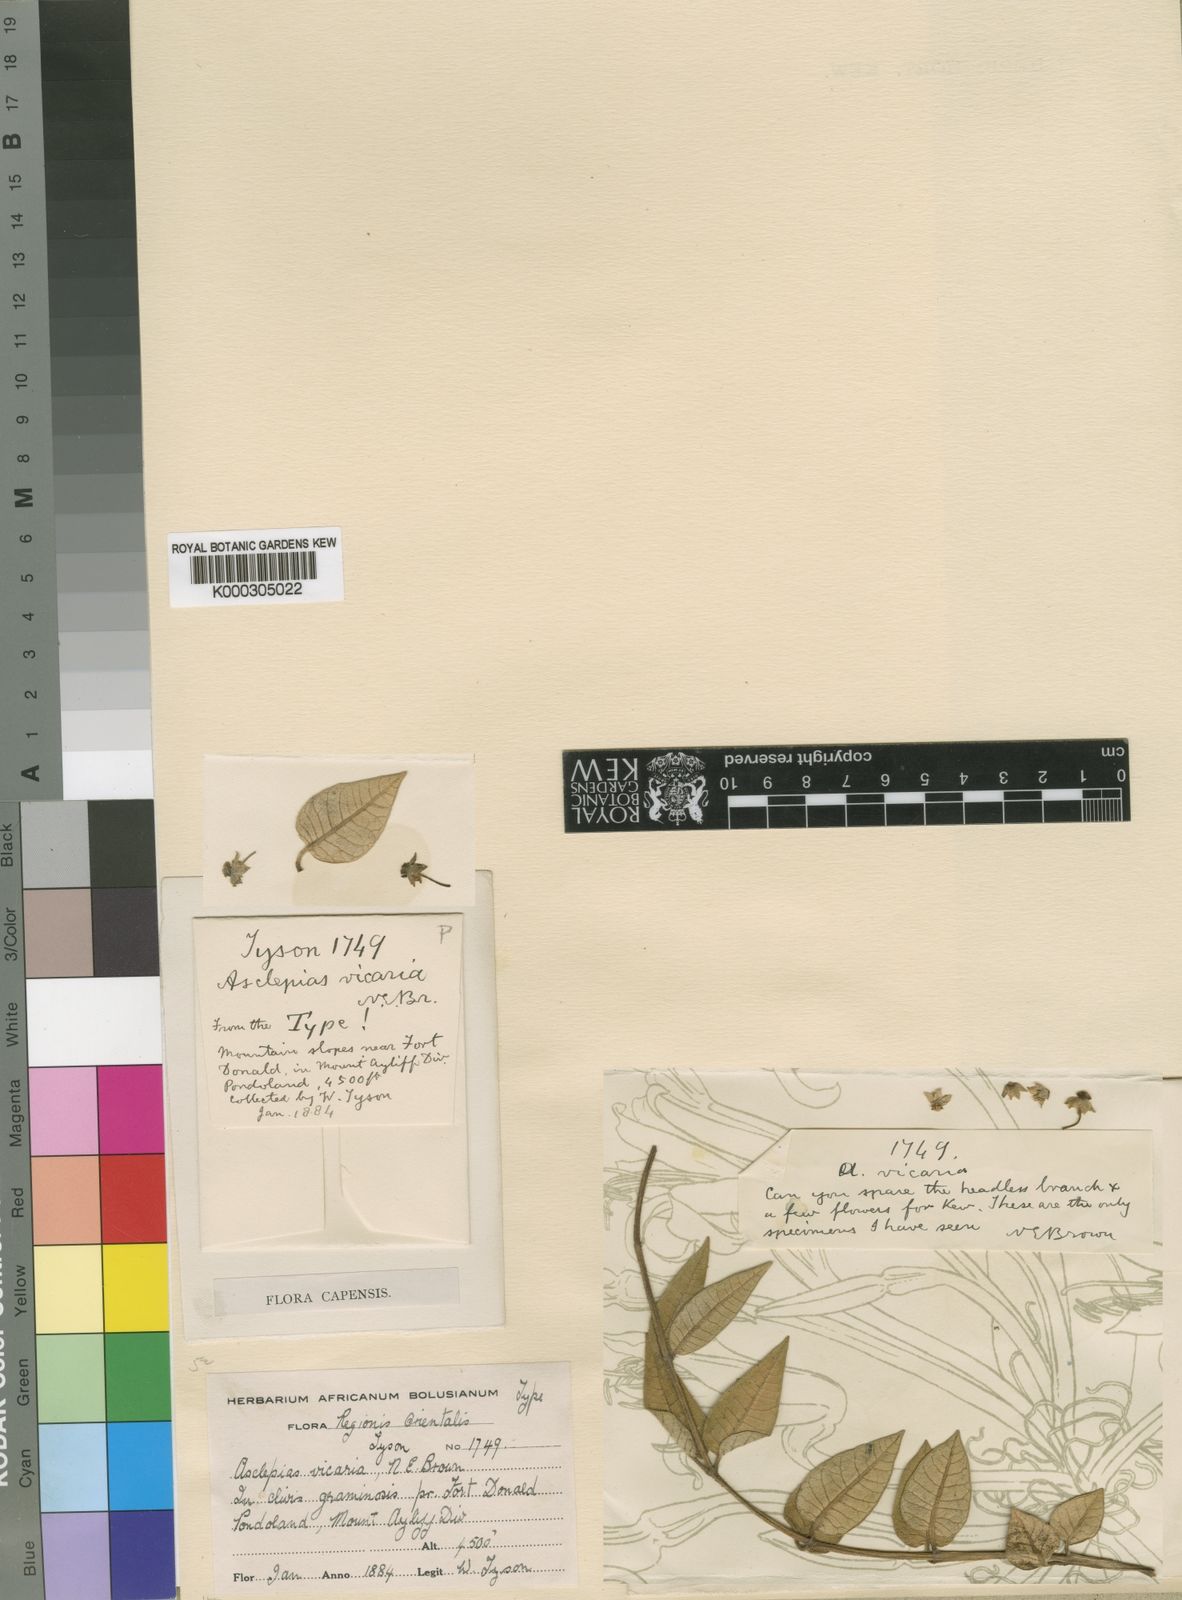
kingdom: Plantae
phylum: Tracheophyta
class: Magnoliopsida
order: Gentianales
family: Apocynaceae
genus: Asclepias
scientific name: Asclepias vicaria
